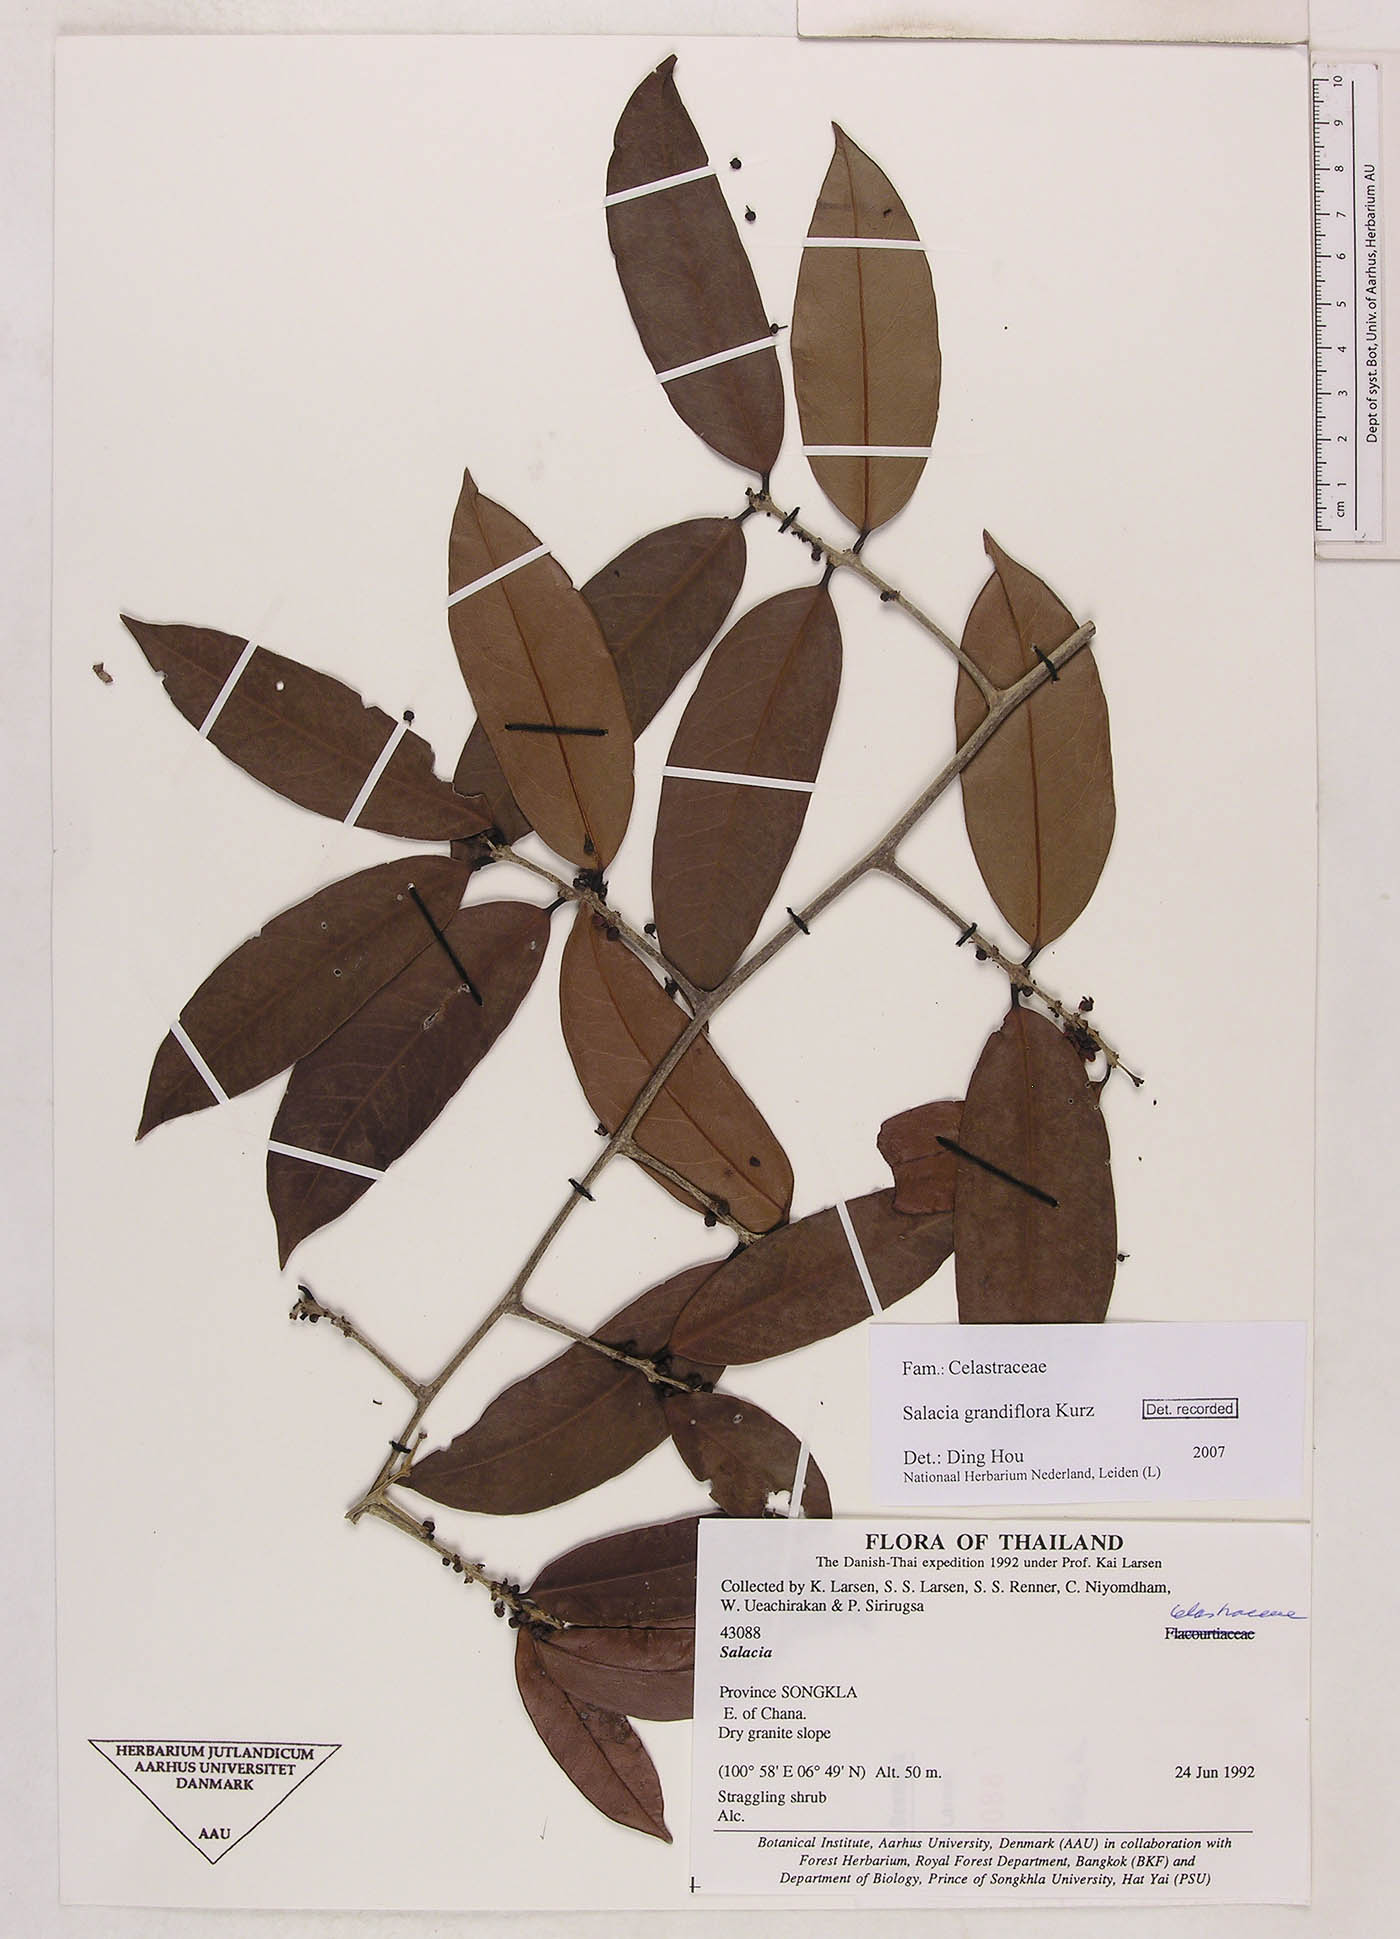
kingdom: Plantae
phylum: Tracheophyta
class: Magnoliopsida
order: Celastrales
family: Celastraceae
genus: Salacia
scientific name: Salacia grandiflora
